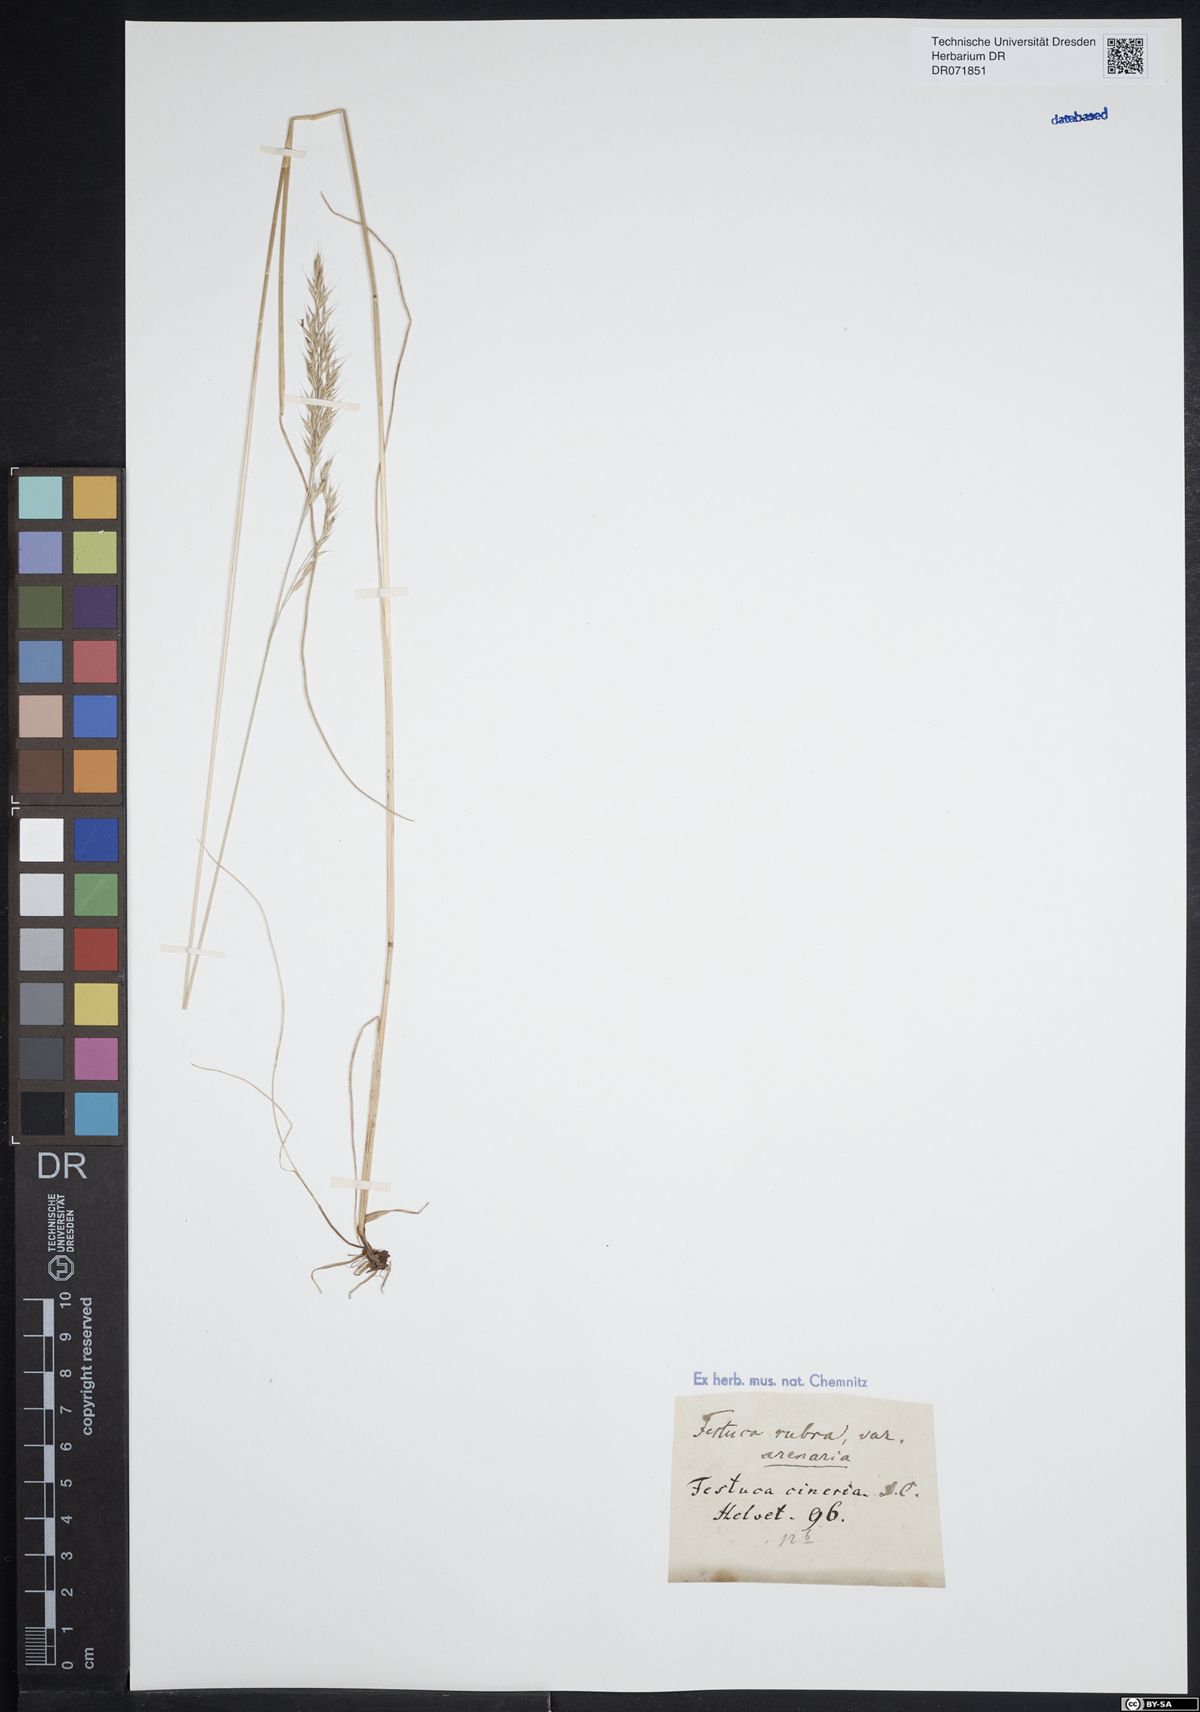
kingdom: Plantae
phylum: Tracheophyta
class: Liliopsida
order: Poales
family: Poaceae
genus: Festuca
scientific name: Festuca rubra
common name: Red fescue
